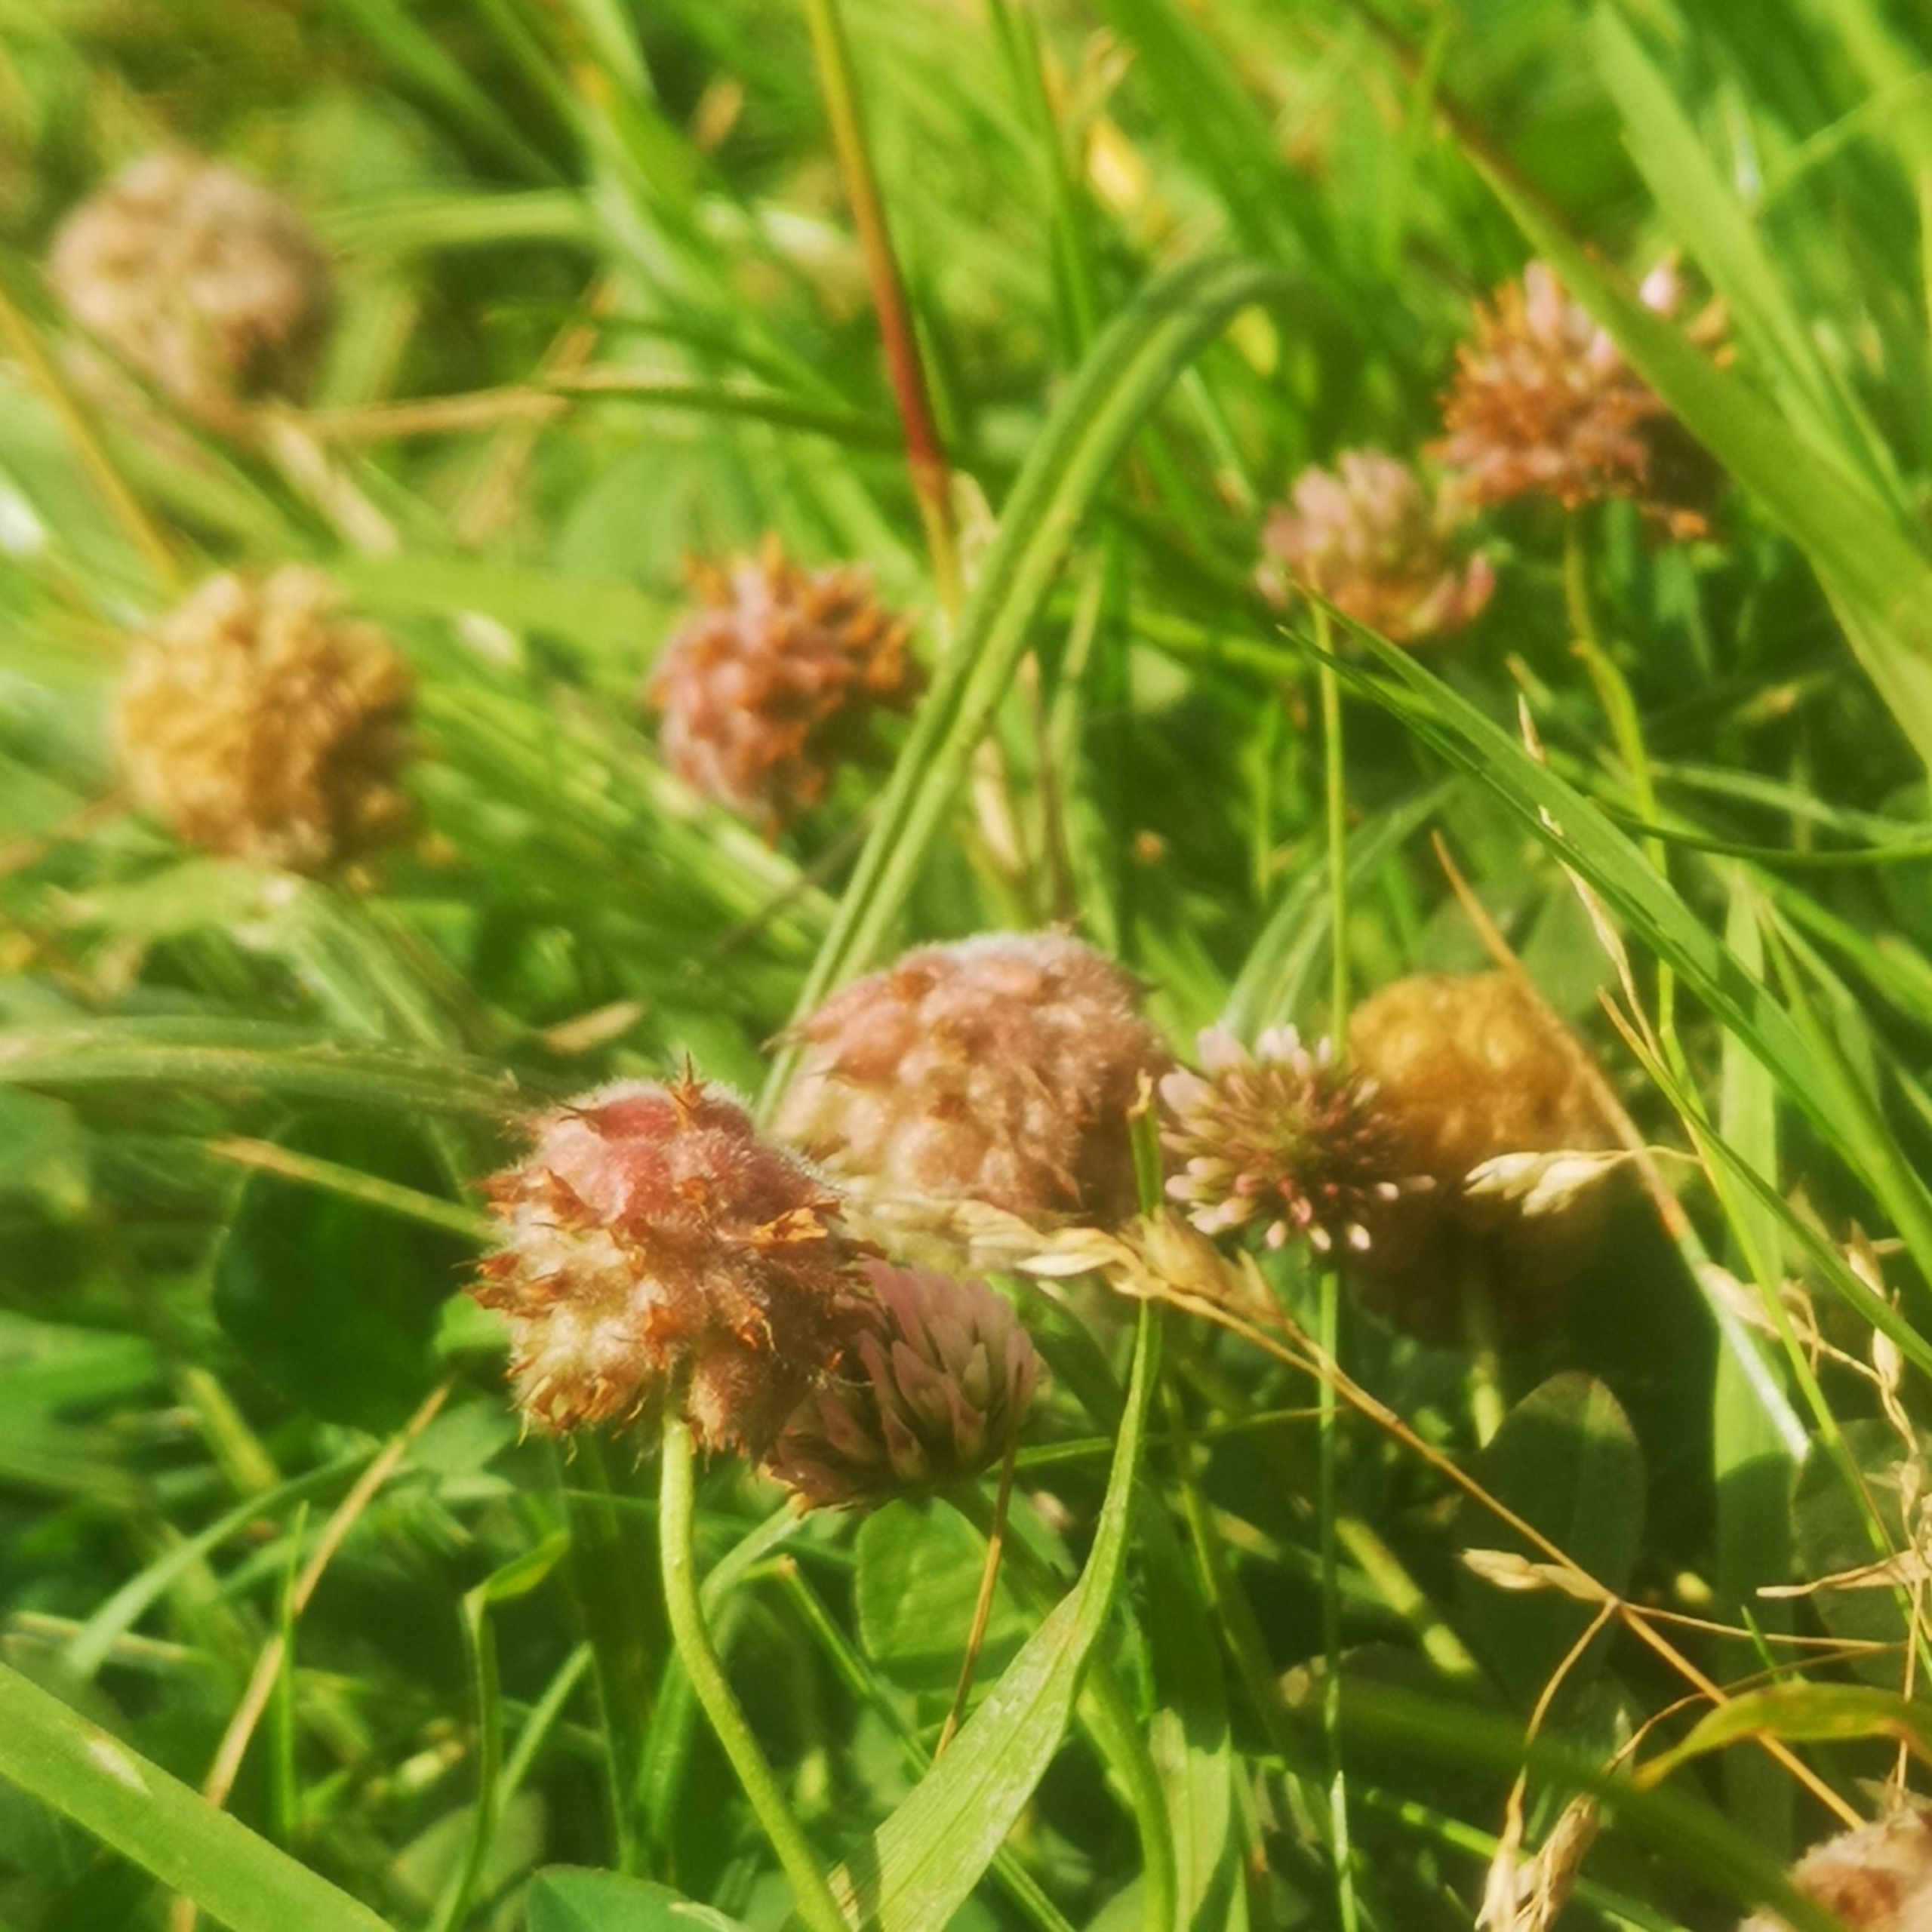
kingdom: Plantae
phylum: Tracheophyta
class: Magnoliopsida
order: Fabales
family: Fabaceae
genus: Trifolium
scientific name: Trifolium fragiferum
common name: Jordbær-kløver
